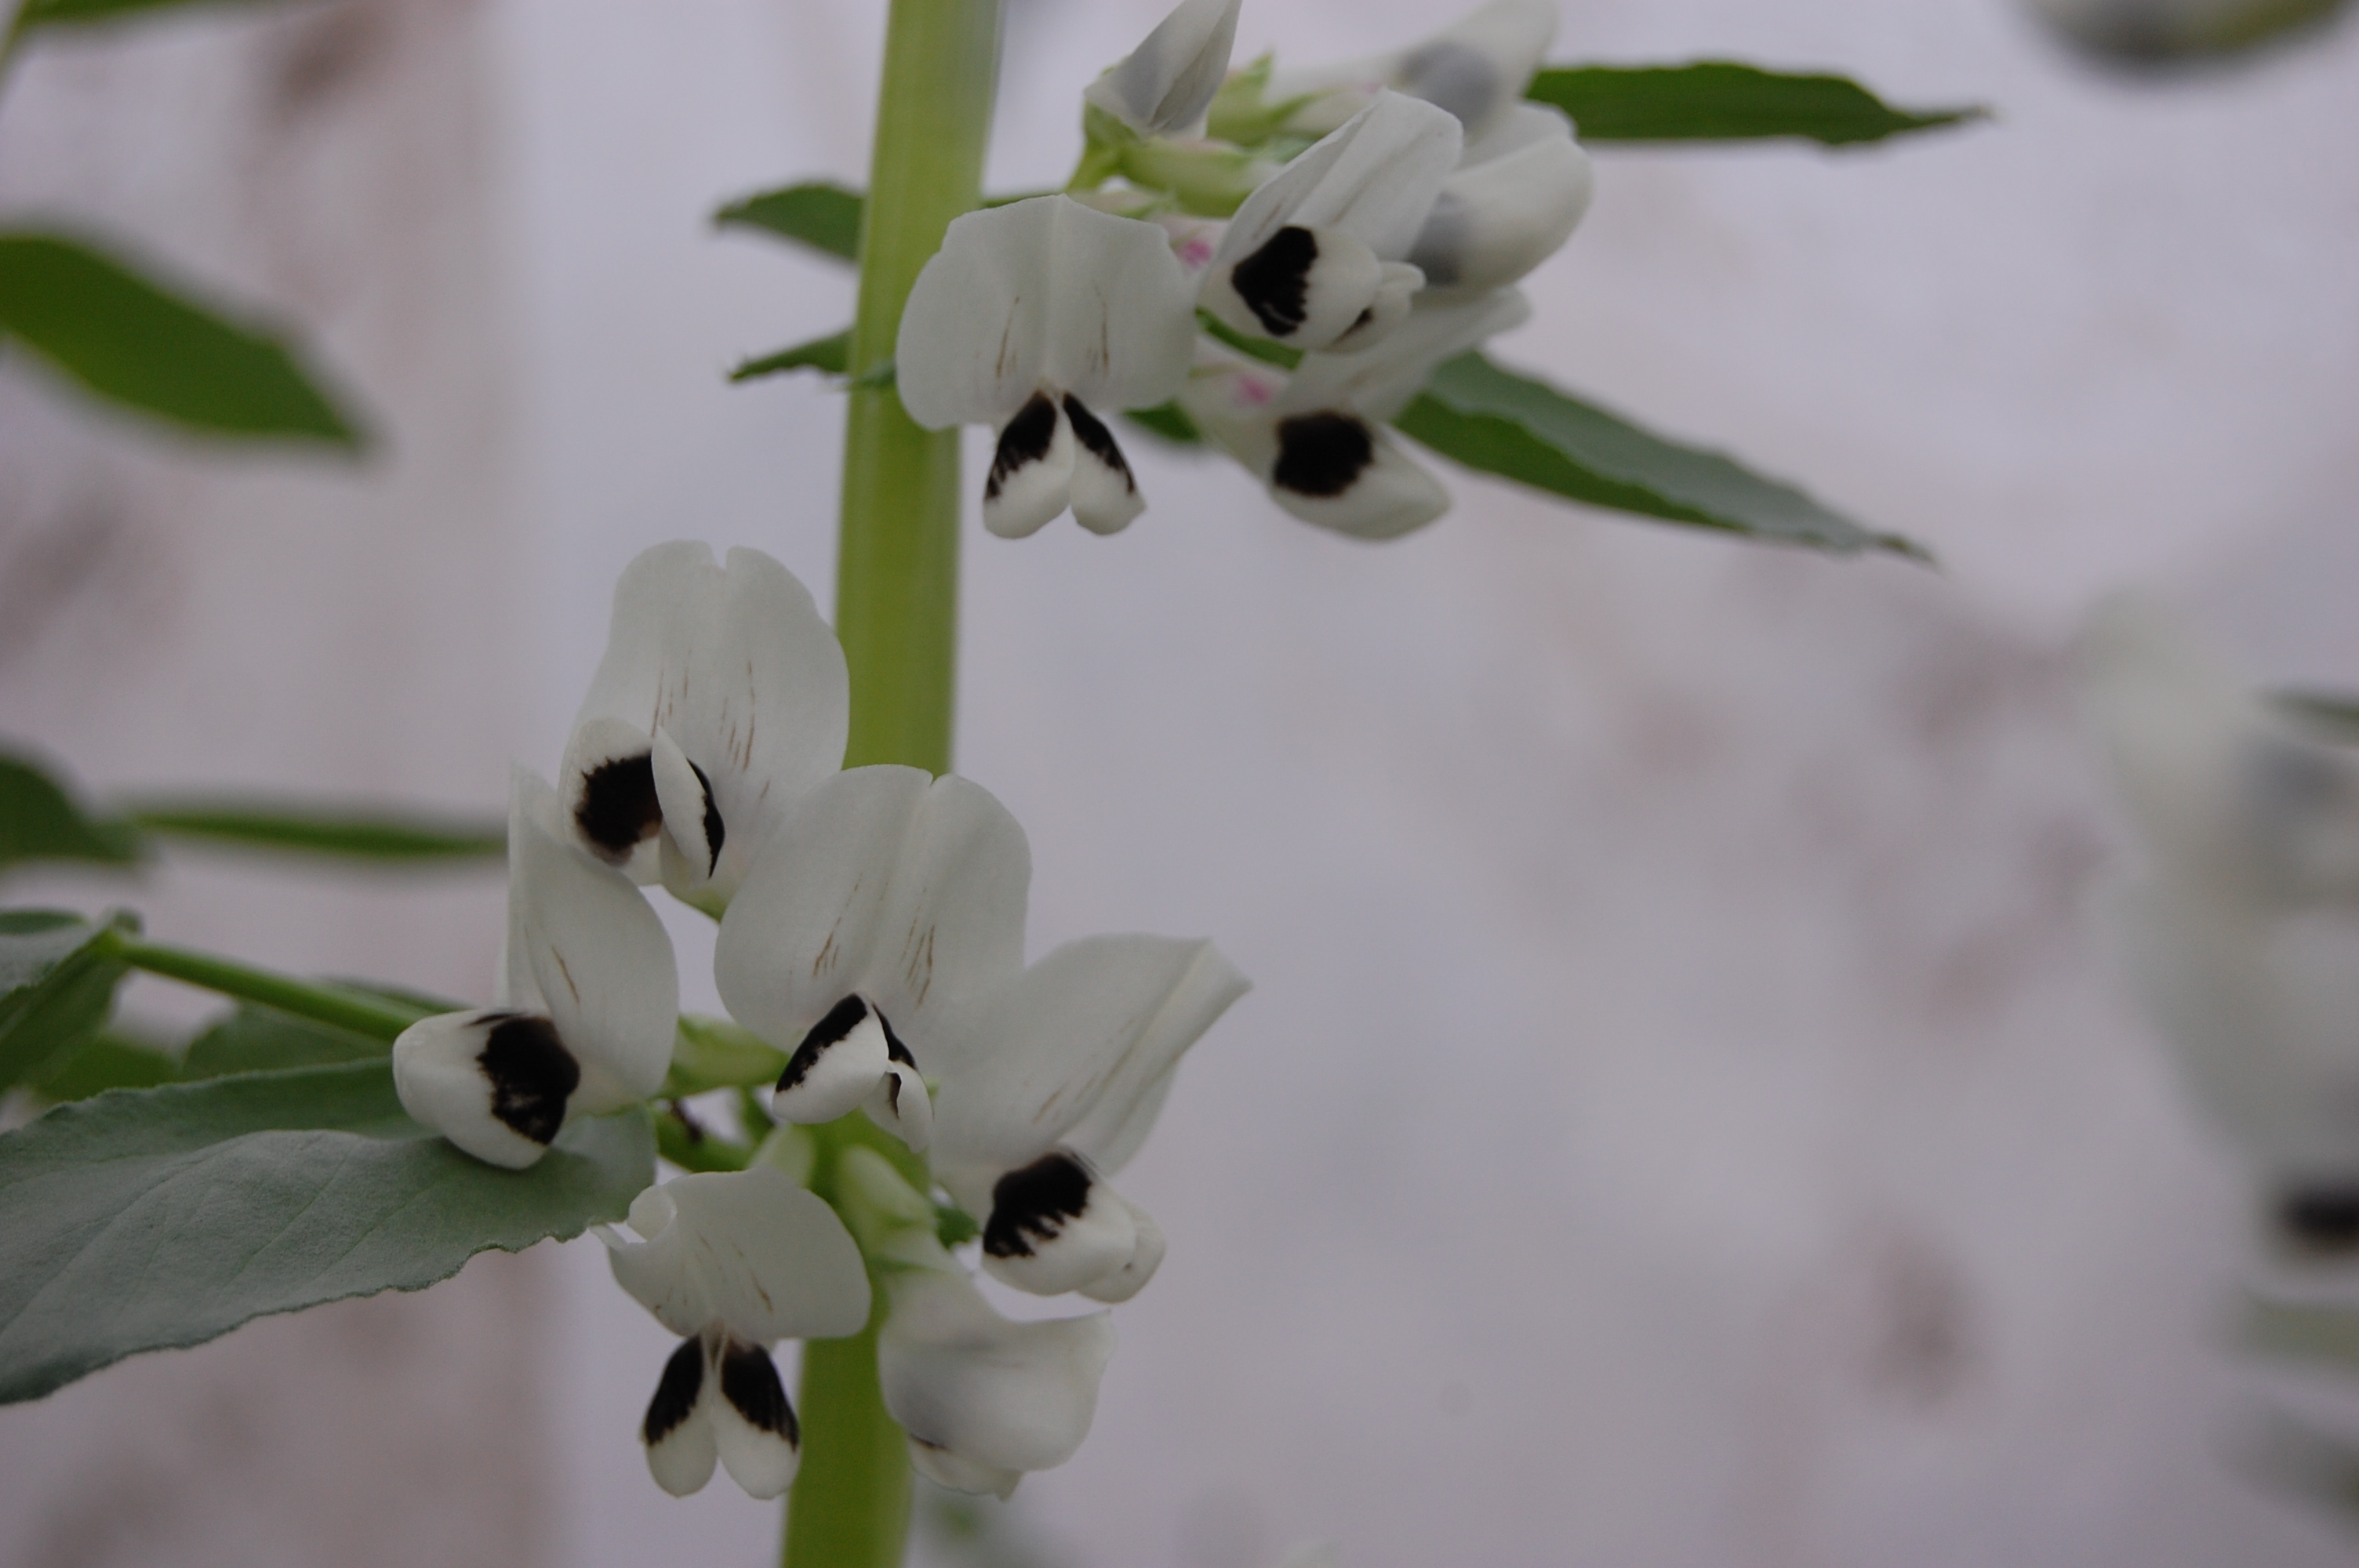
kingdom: Plantae
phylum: Tracheophyta
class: Magnoliopsida
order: Fabales
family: Fabaceae
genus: Vicia
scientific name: Vicia faba
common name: Broad bean
